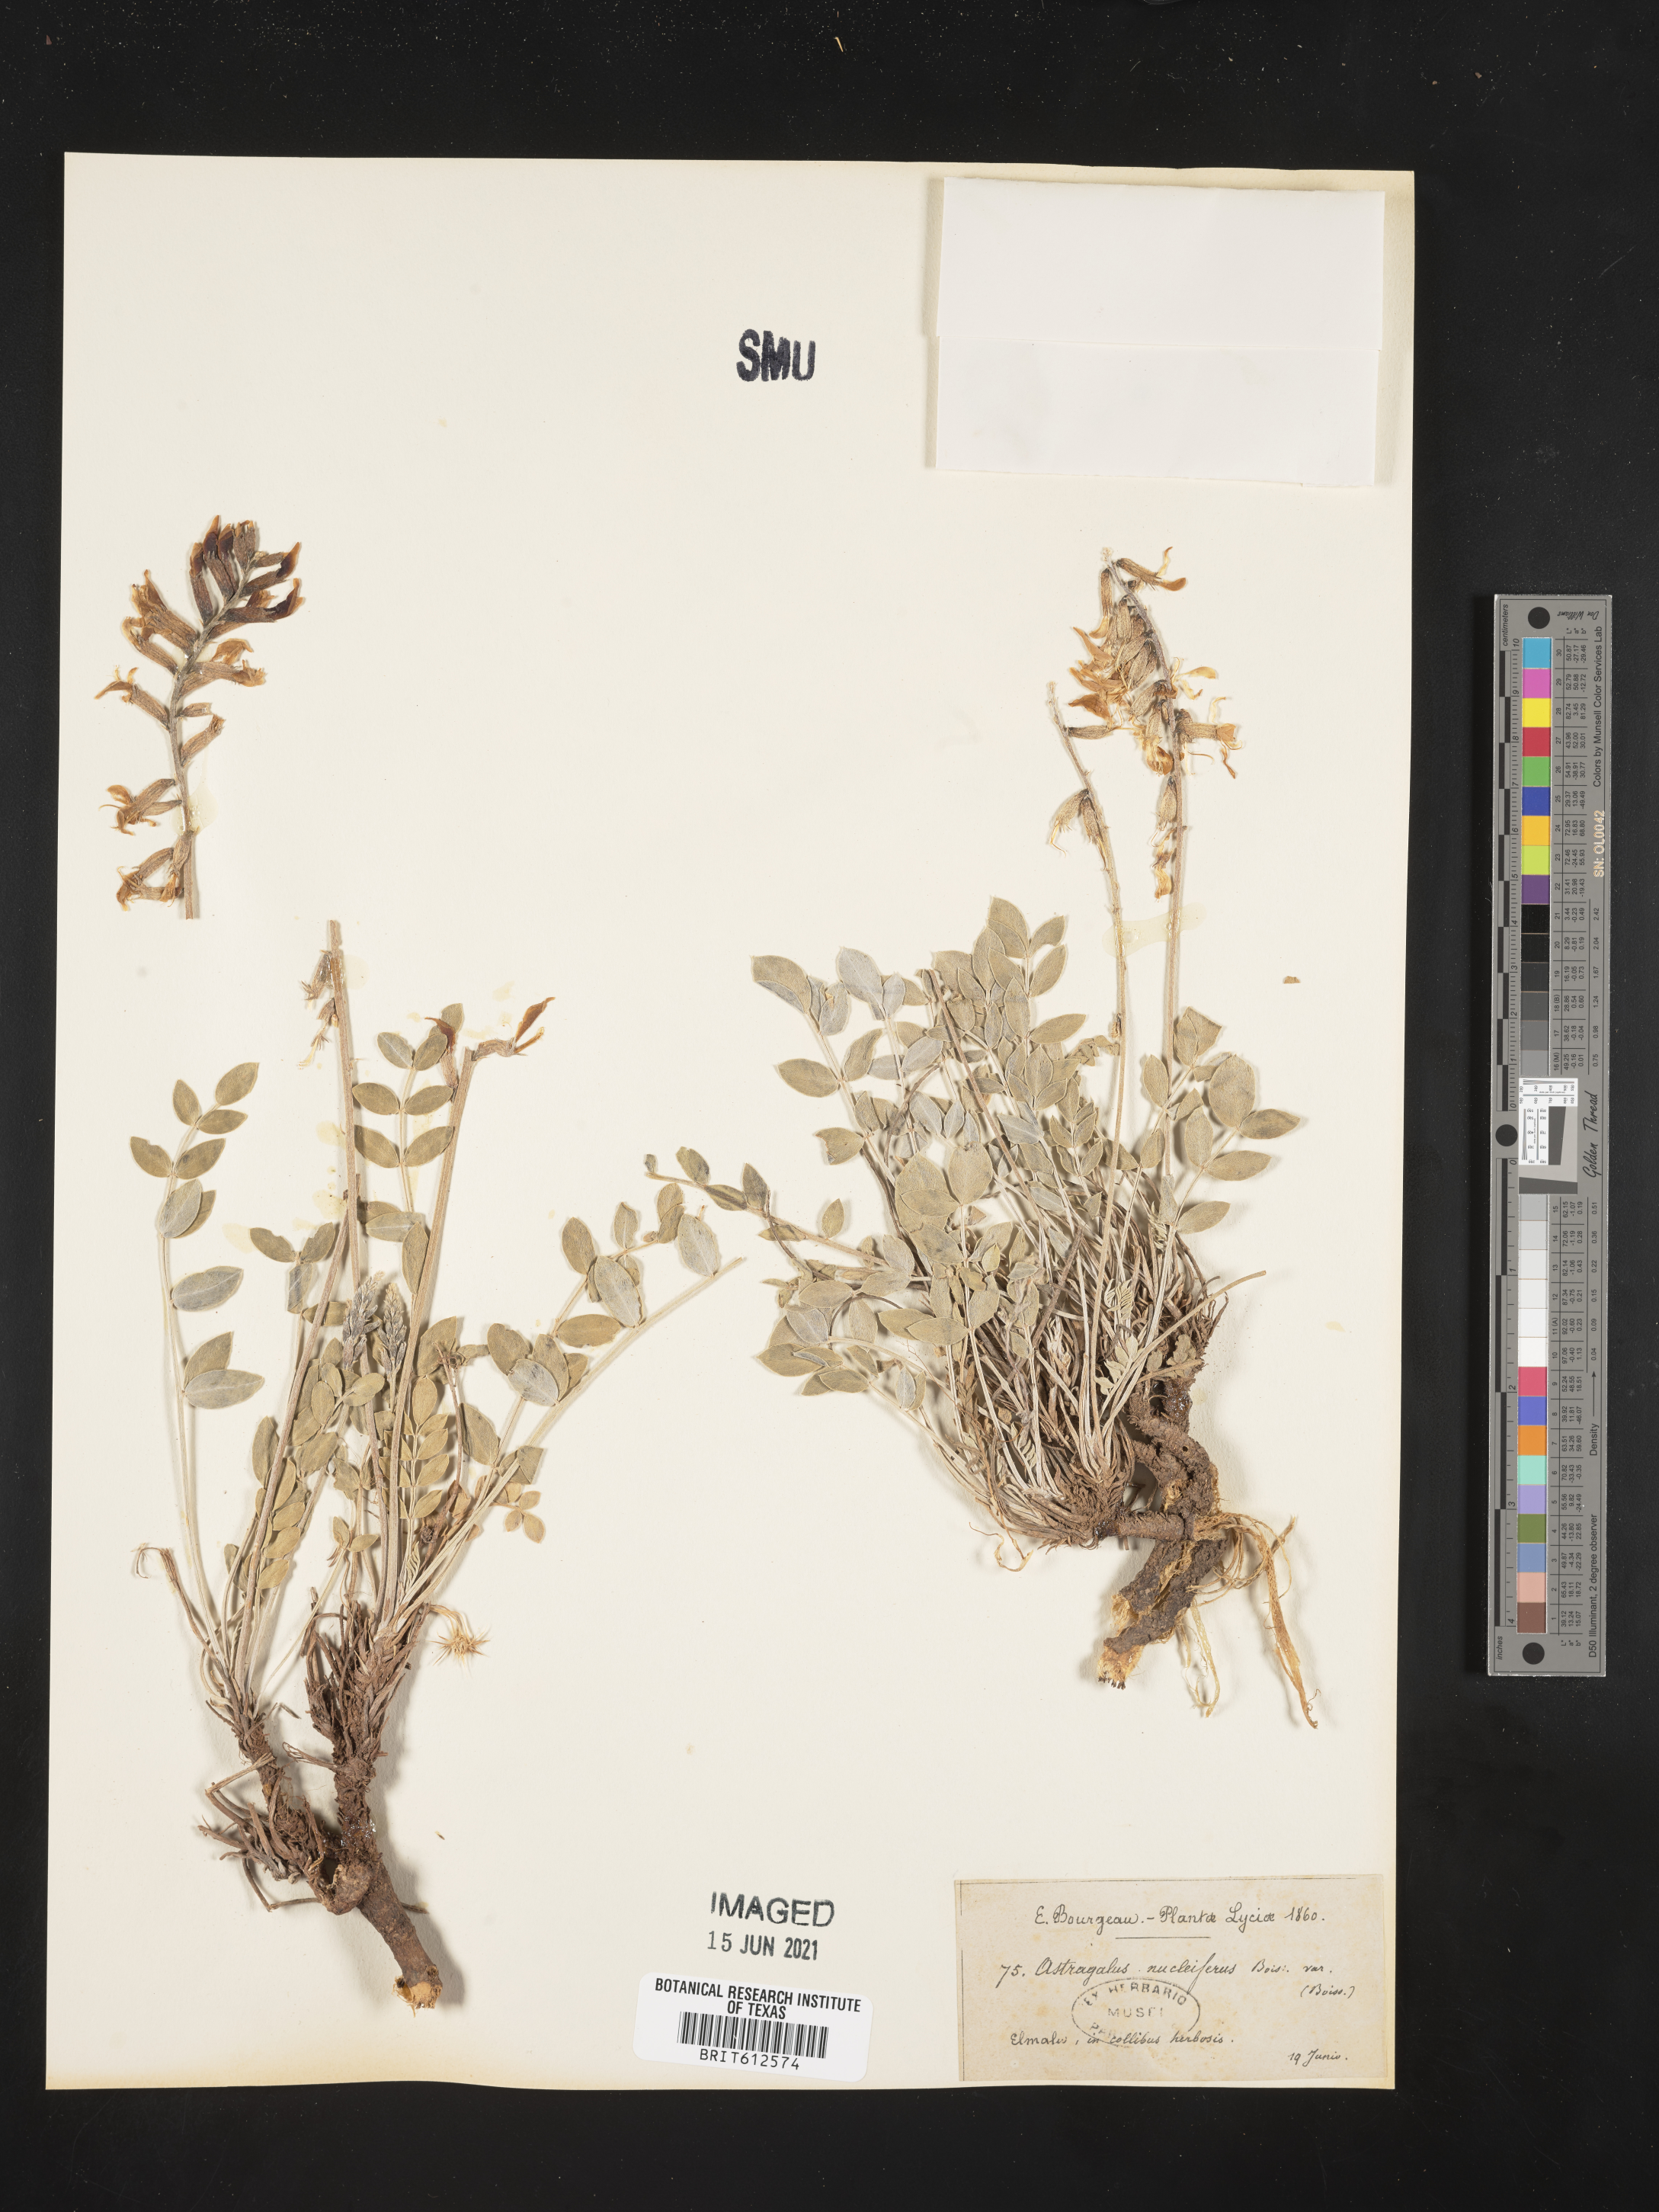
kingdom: Plantae
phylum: Tracheophyta
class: Magnoliopsida
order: Fabales
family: Fabaceae
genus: Astragalus
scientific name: Astragalus elongatus
